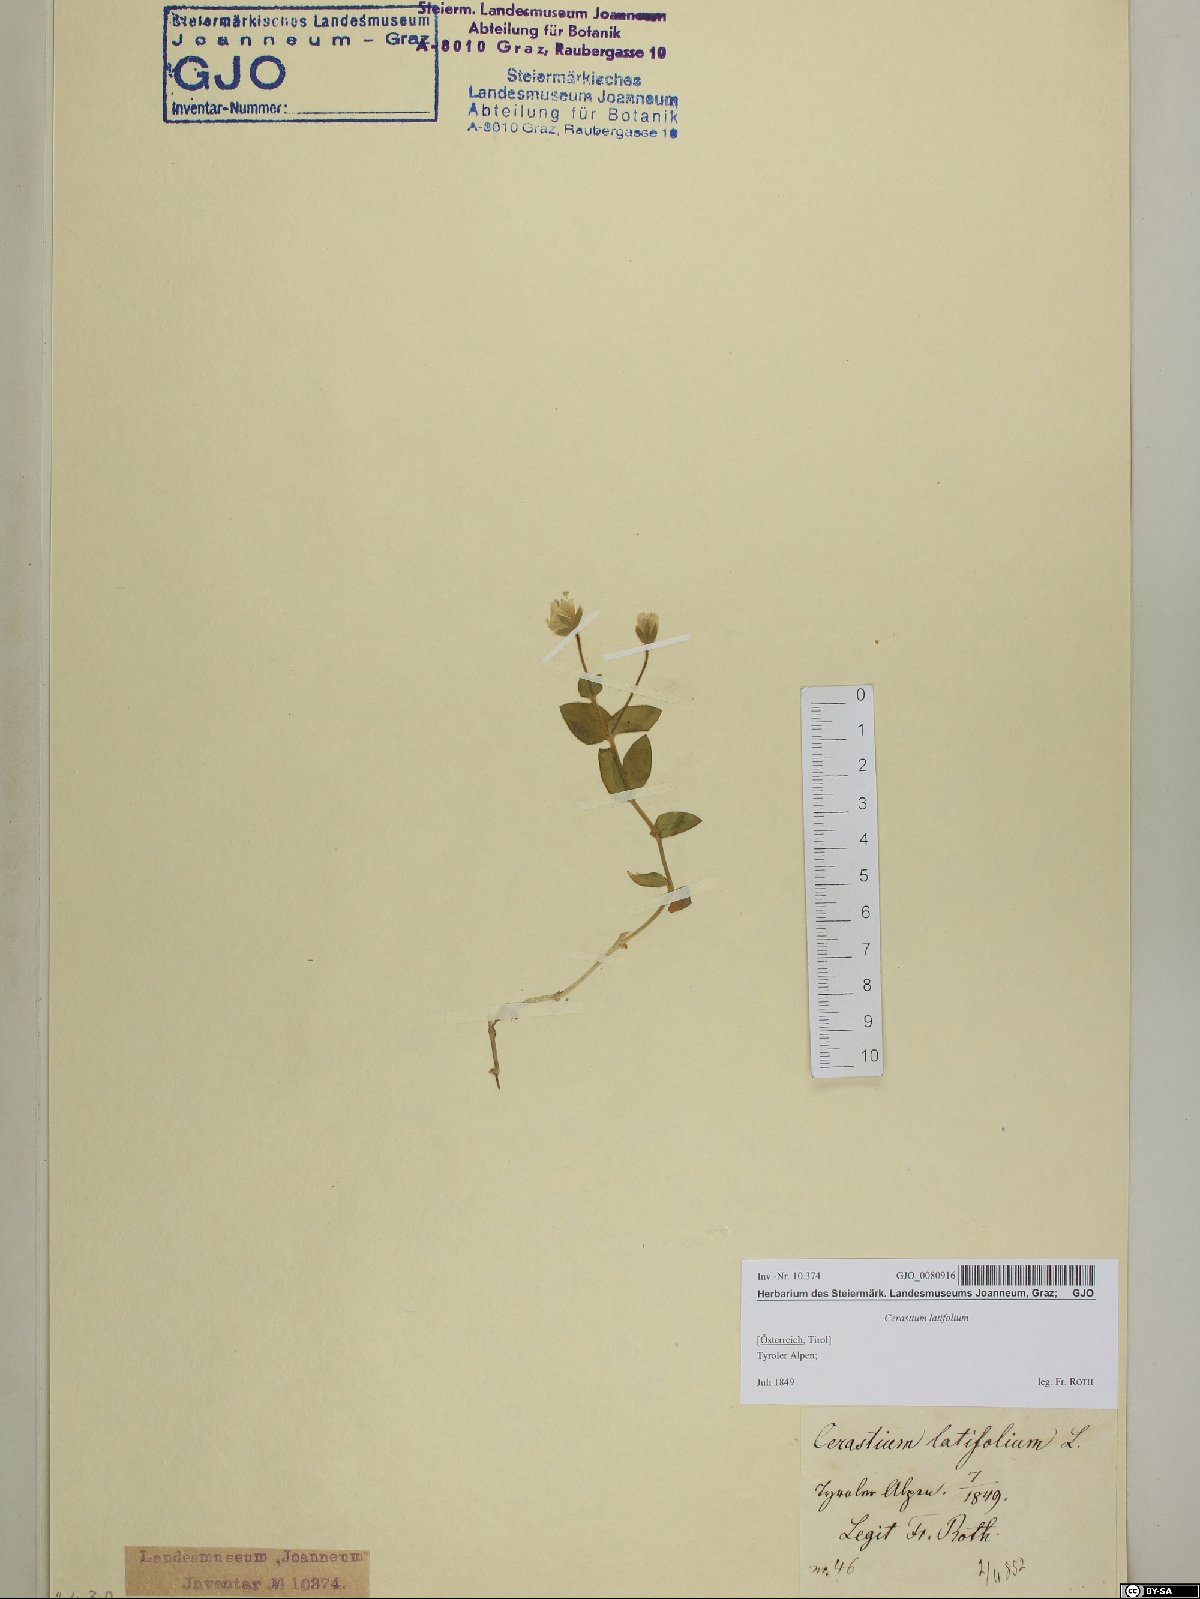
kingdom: Plantae
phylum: Tracheophyta
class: Magnoliopsida
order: Caryophyllales
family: Caryophyllaceae
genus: Cerastium
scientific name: Cerastium latifolium
